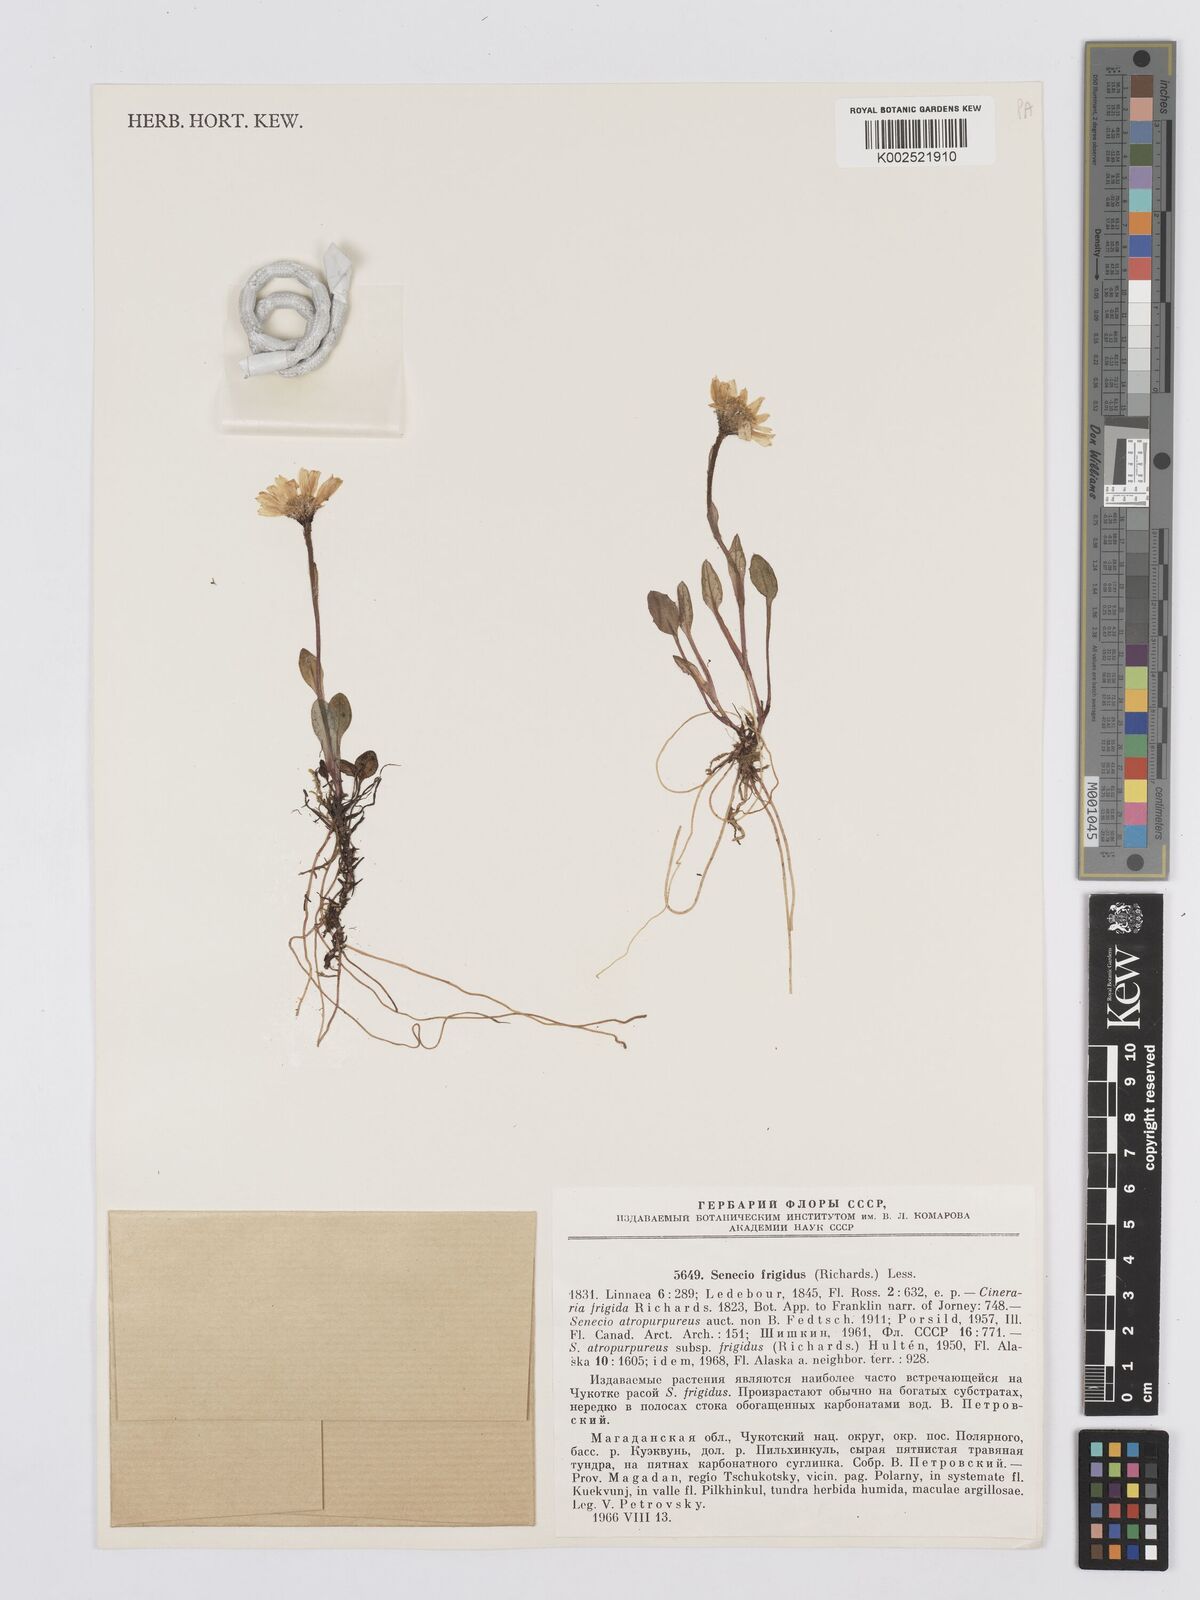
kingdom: Plantae
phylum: Tracheophyta
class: Magnoliopsida
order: Asterales
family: Asteraceae
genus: Tephroseris
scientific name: Tephroseris
